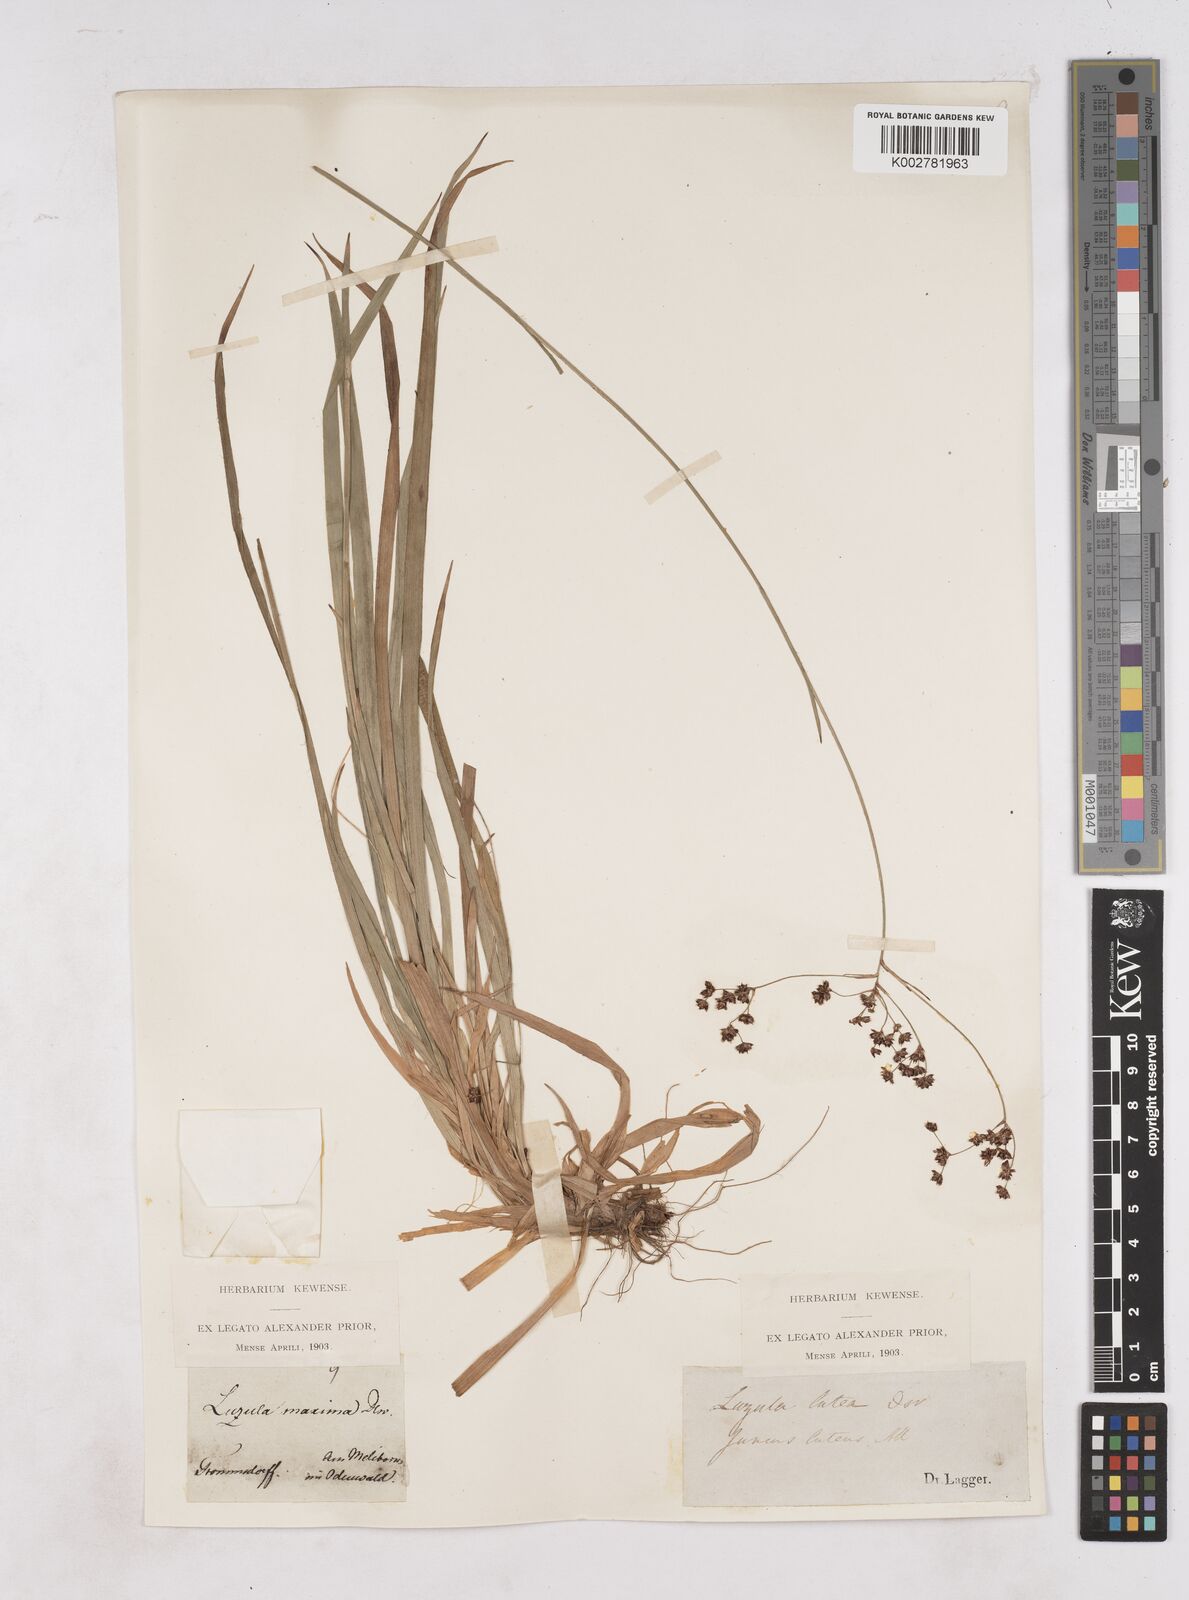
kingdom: Plantae
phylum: Tracheophyta
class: Liliopsida
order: Poales
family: Juncaceae
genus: Luzula
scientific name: Luzula sylvatica
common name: Great wood-rush
